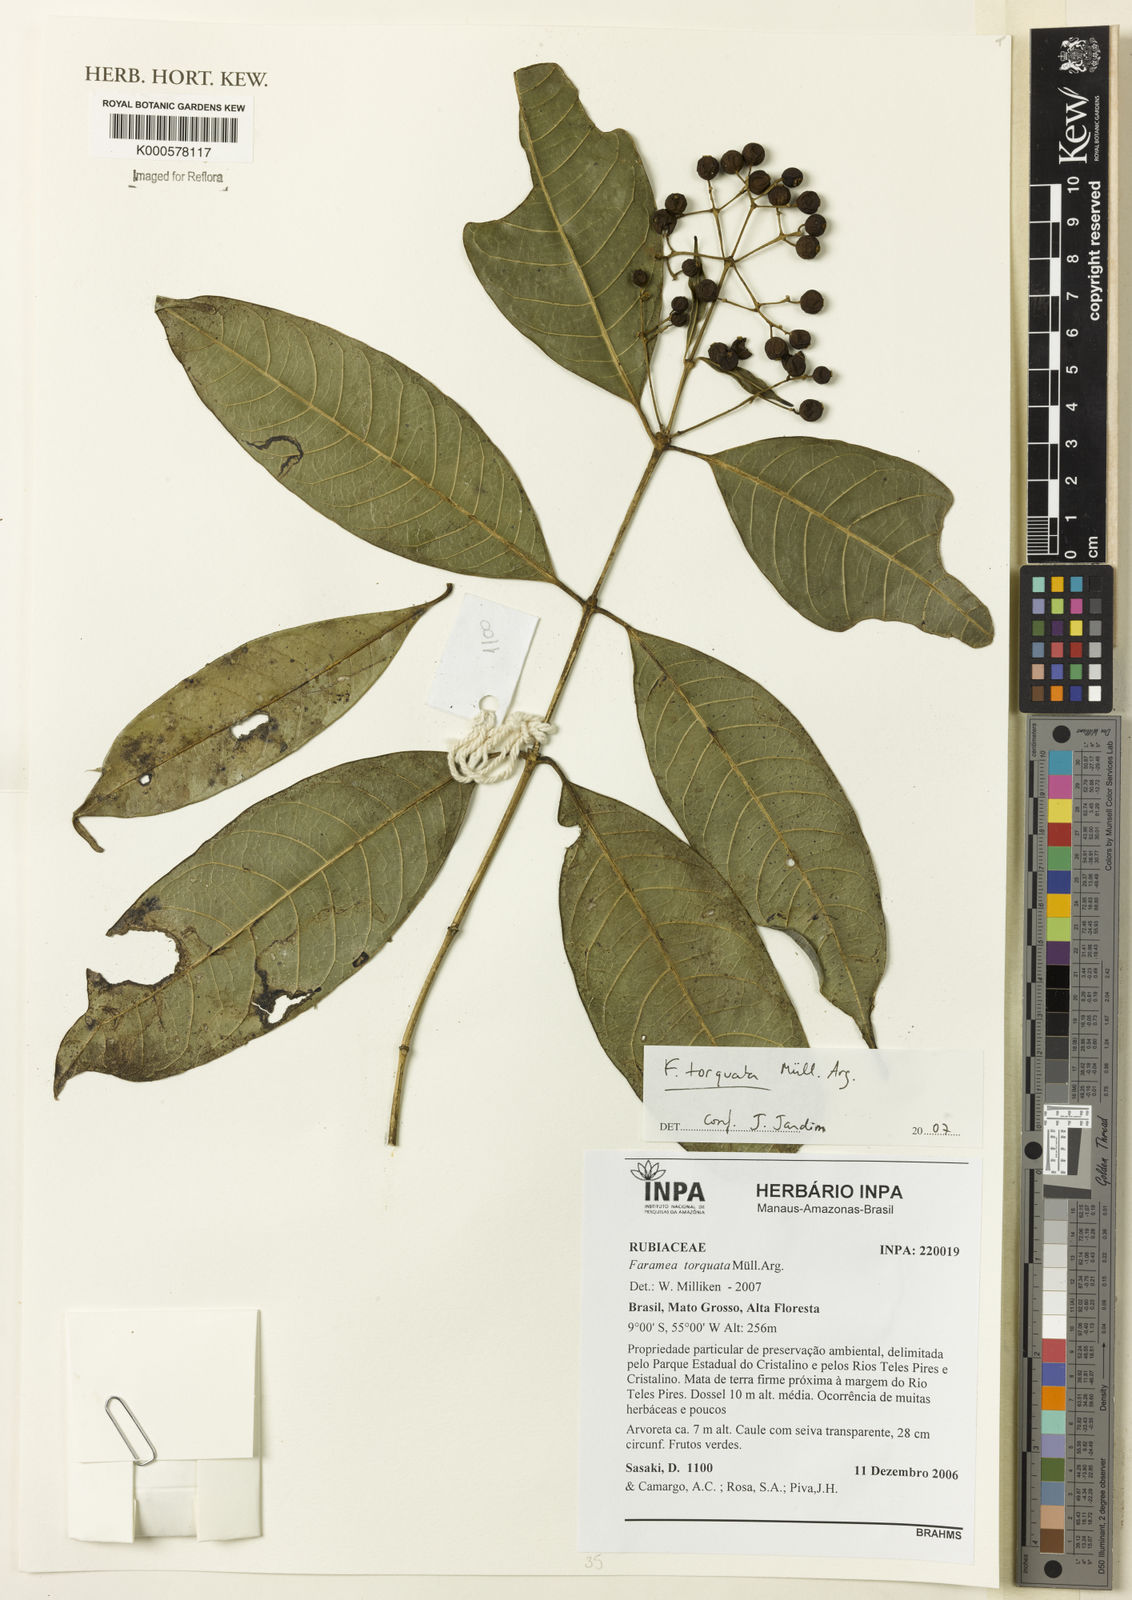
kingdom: Plantae
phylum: Tracheophyta
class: Magnoliopsida
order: Gentianales
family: Rubiaceae
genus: Faramea
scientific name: Faramea
